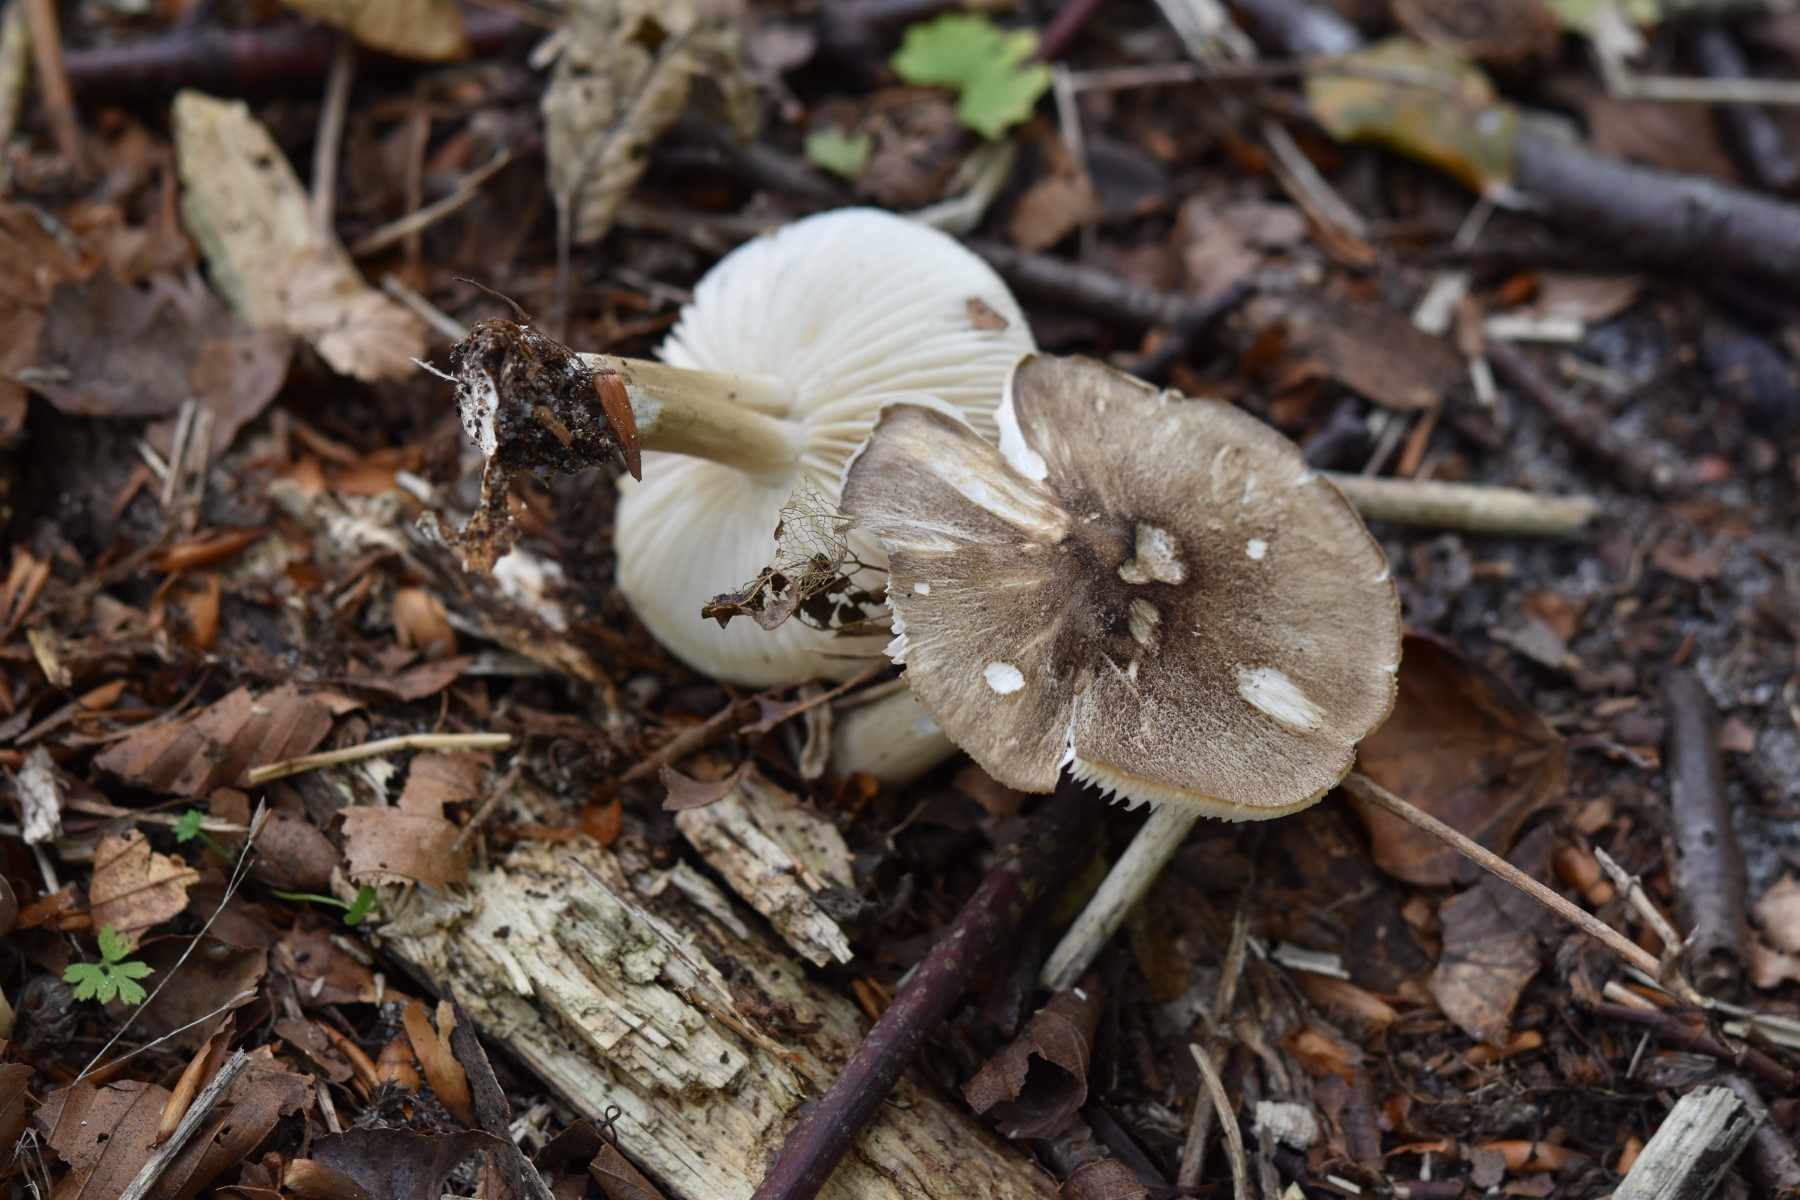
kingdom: Fungi
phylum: Basidiomycota
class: Agaricomycetes
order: Agaricales
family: Tricholomataceae
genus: Megacollybia
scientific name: Megacollybia platyphylla
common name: bredbladet væbnerhat
